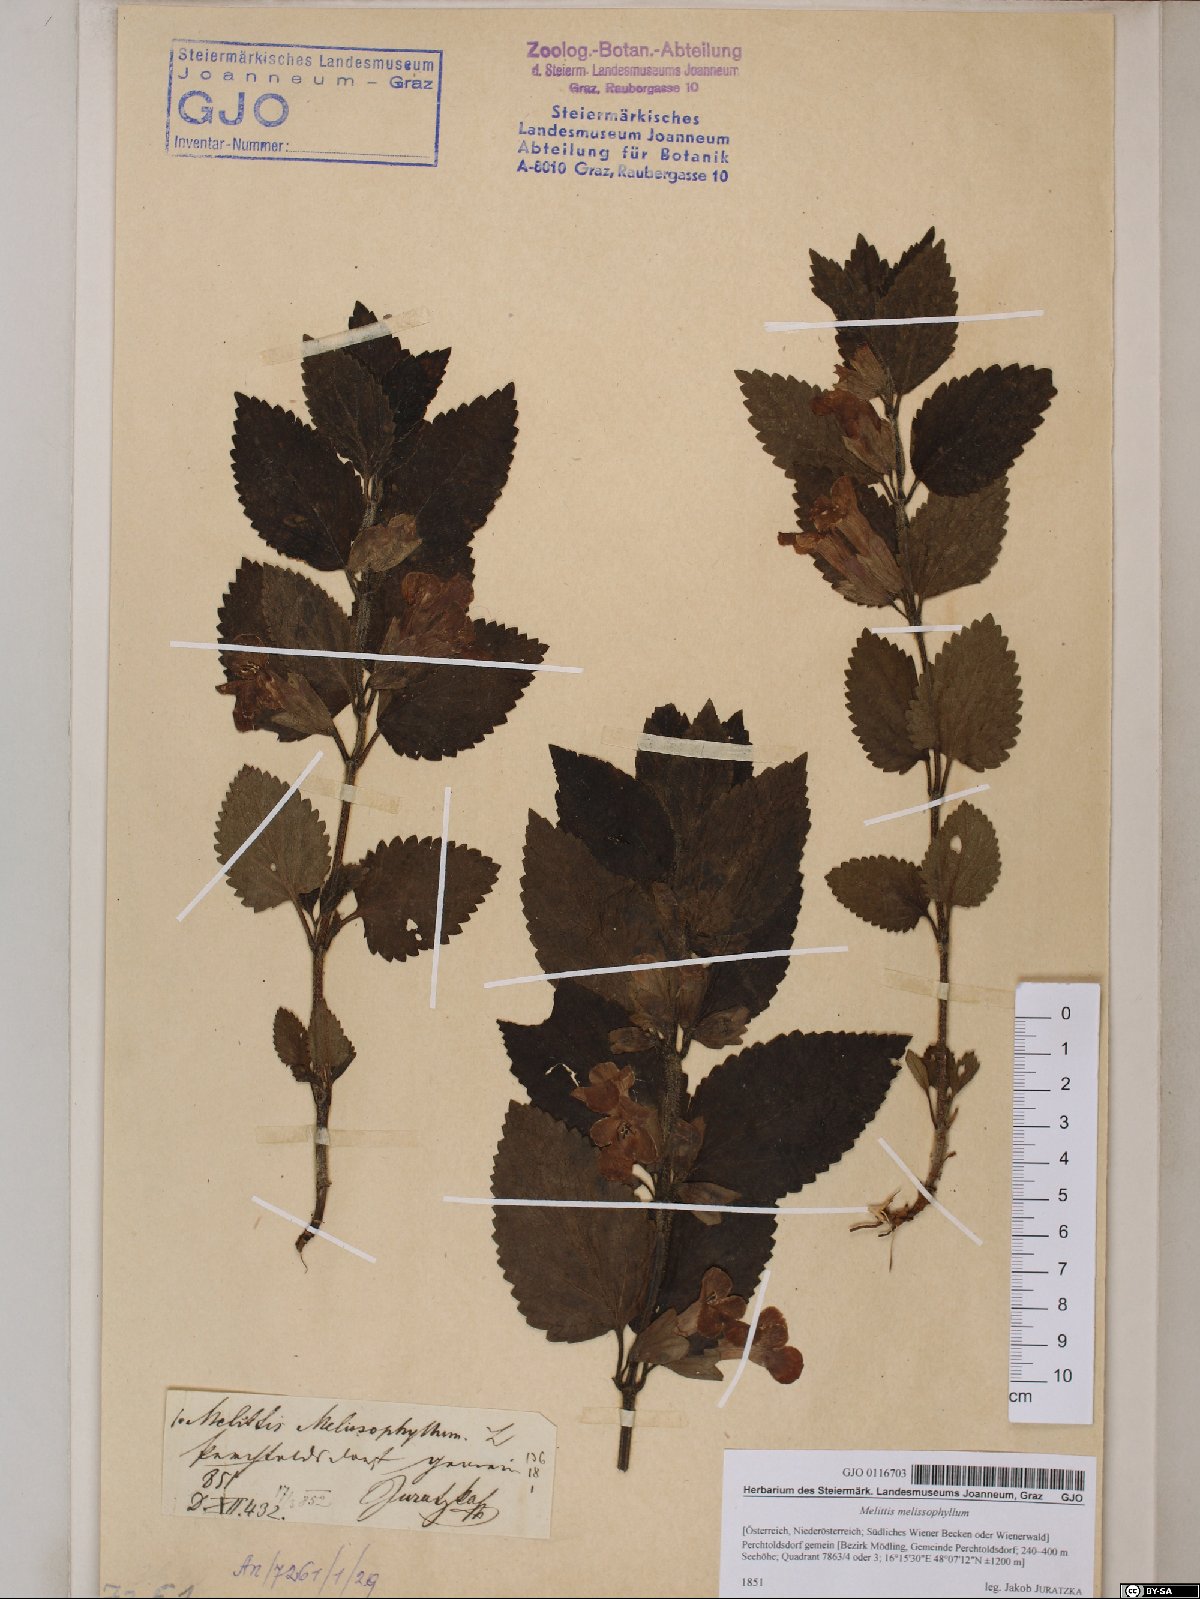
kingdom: Plantae
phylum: Tracheophyta
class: Magnoliopsida
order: Lamiales
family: Lamiaceae
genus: Melittis
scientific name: Melittis melissophyllum
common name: Bastard balm
